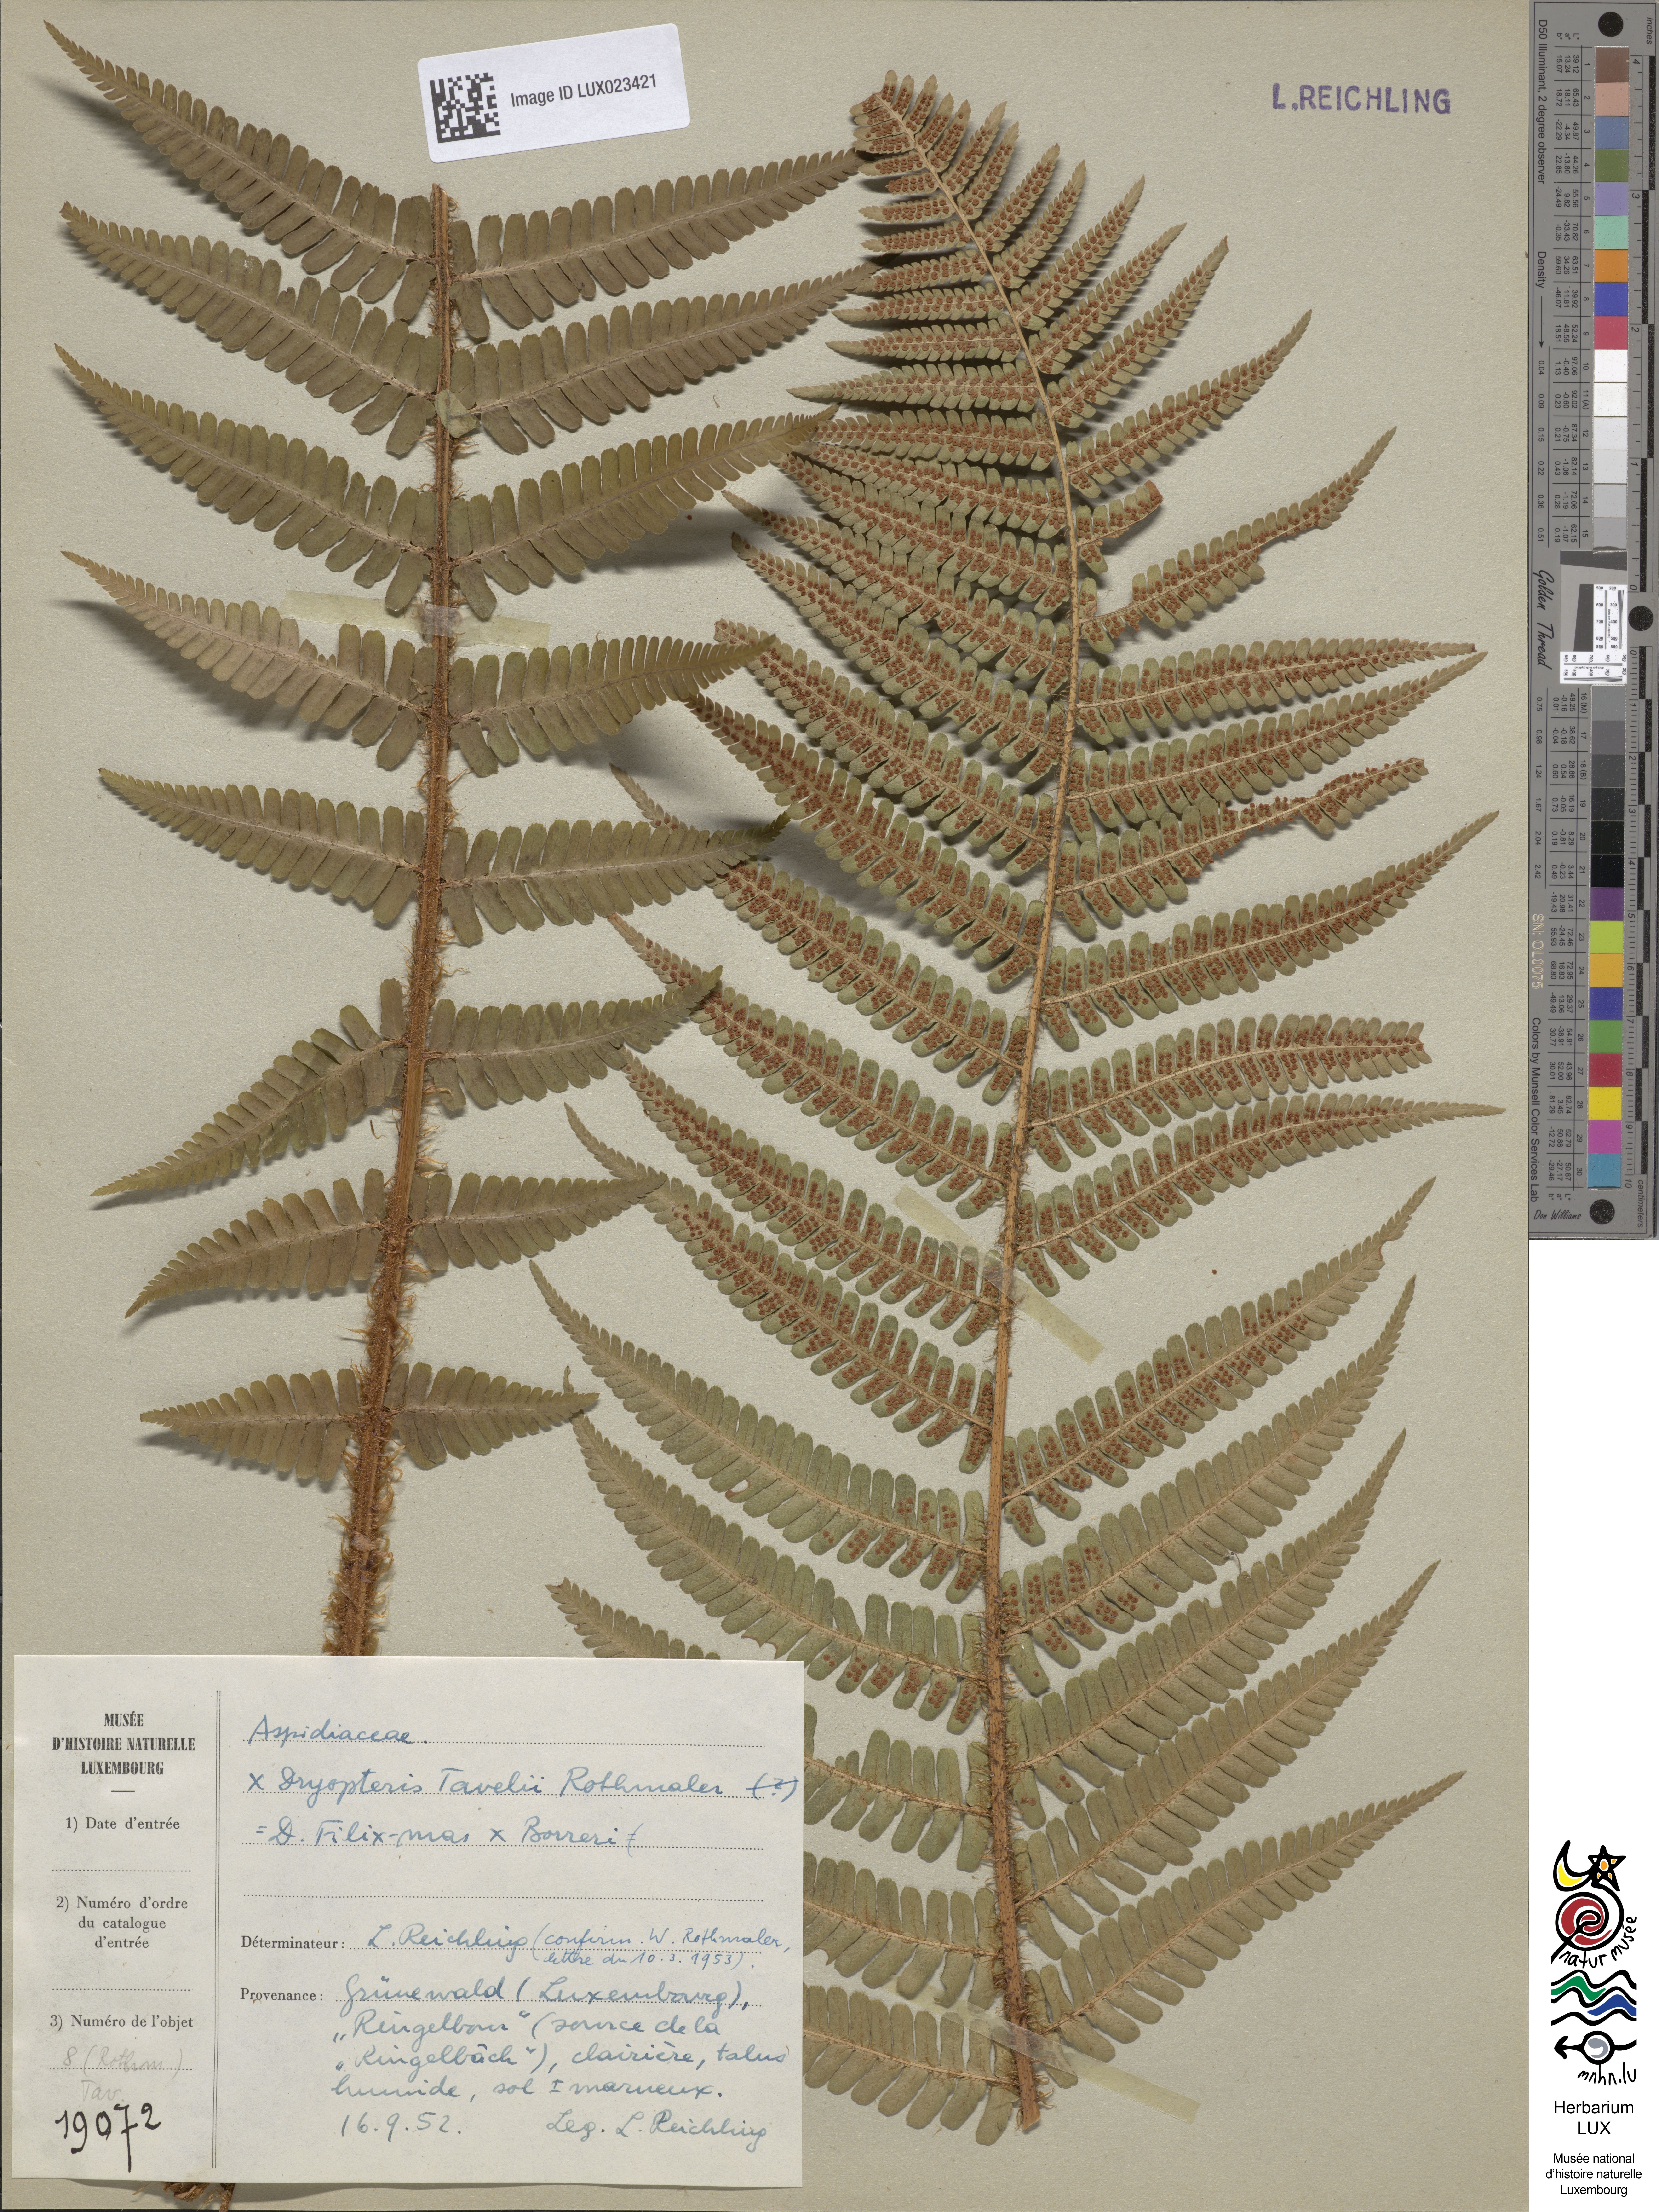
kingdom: Plantae
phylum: Tracheophyta
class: Polypodiopsida
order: Polypodiales
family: Dryopteridaceae
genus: Dryopteris
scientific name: Dryopteris borreri
